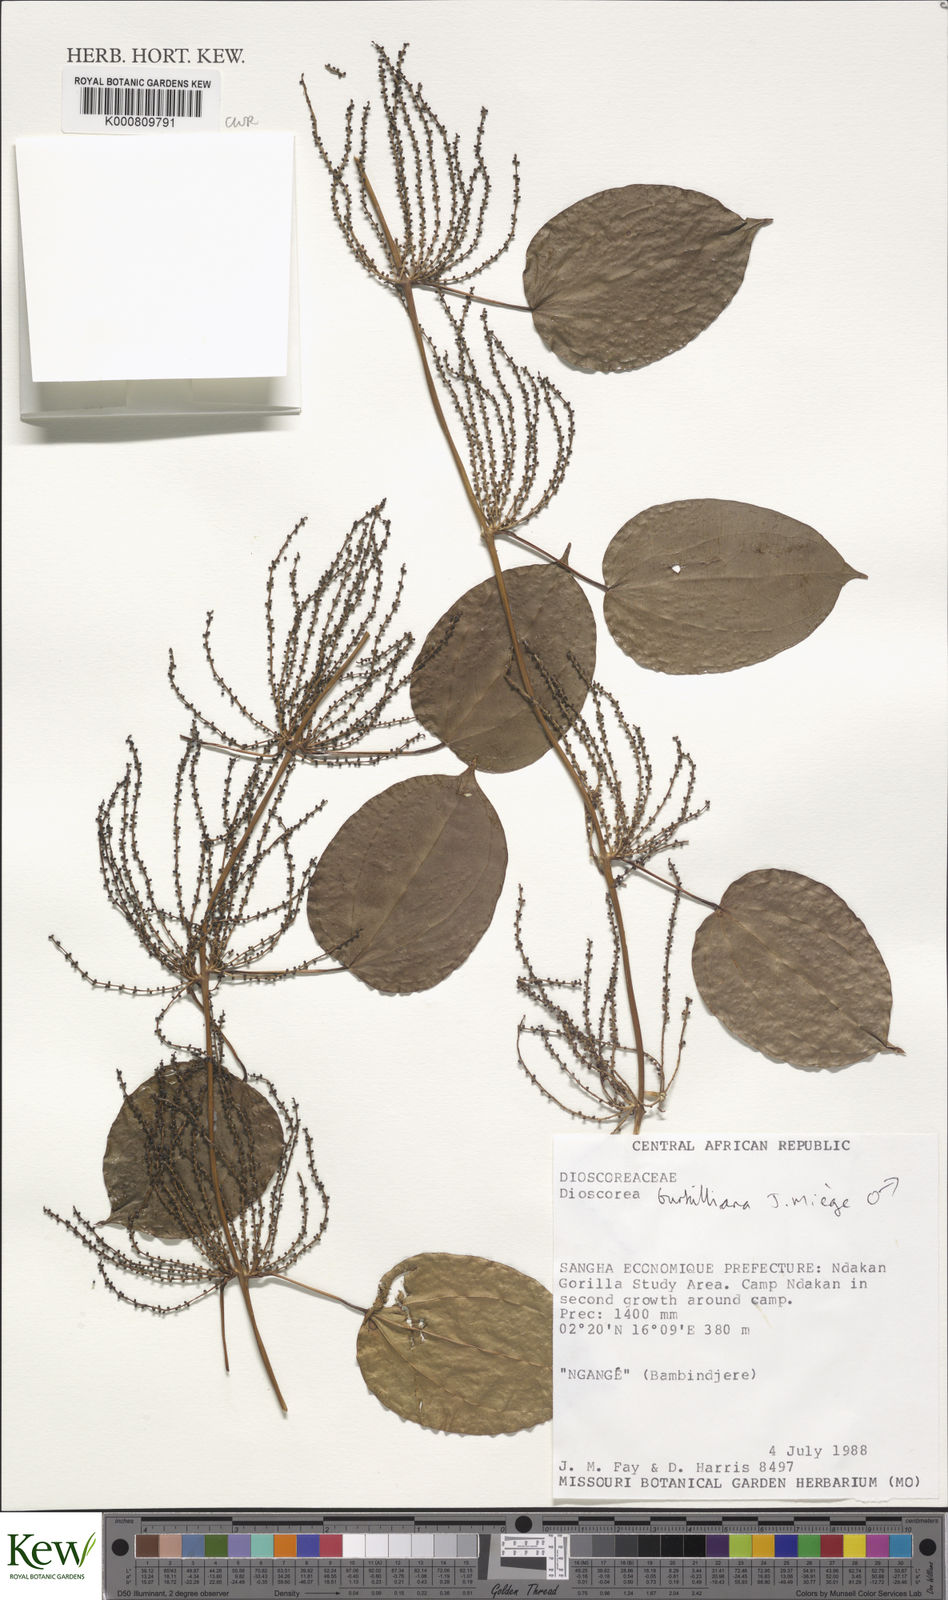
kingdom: Plantae
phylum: Tracheophyta
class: Liliopsida
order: Dioscoreales
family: Dioscoreaceae
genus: Dioscorea
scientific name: Dioscorea
